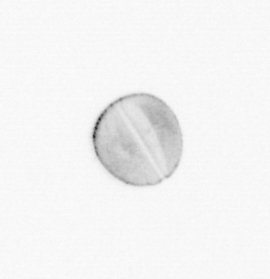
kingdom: Chromista
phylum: Ochrophyta
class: Bacillariophyceae
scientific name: Bacillariophyceae
